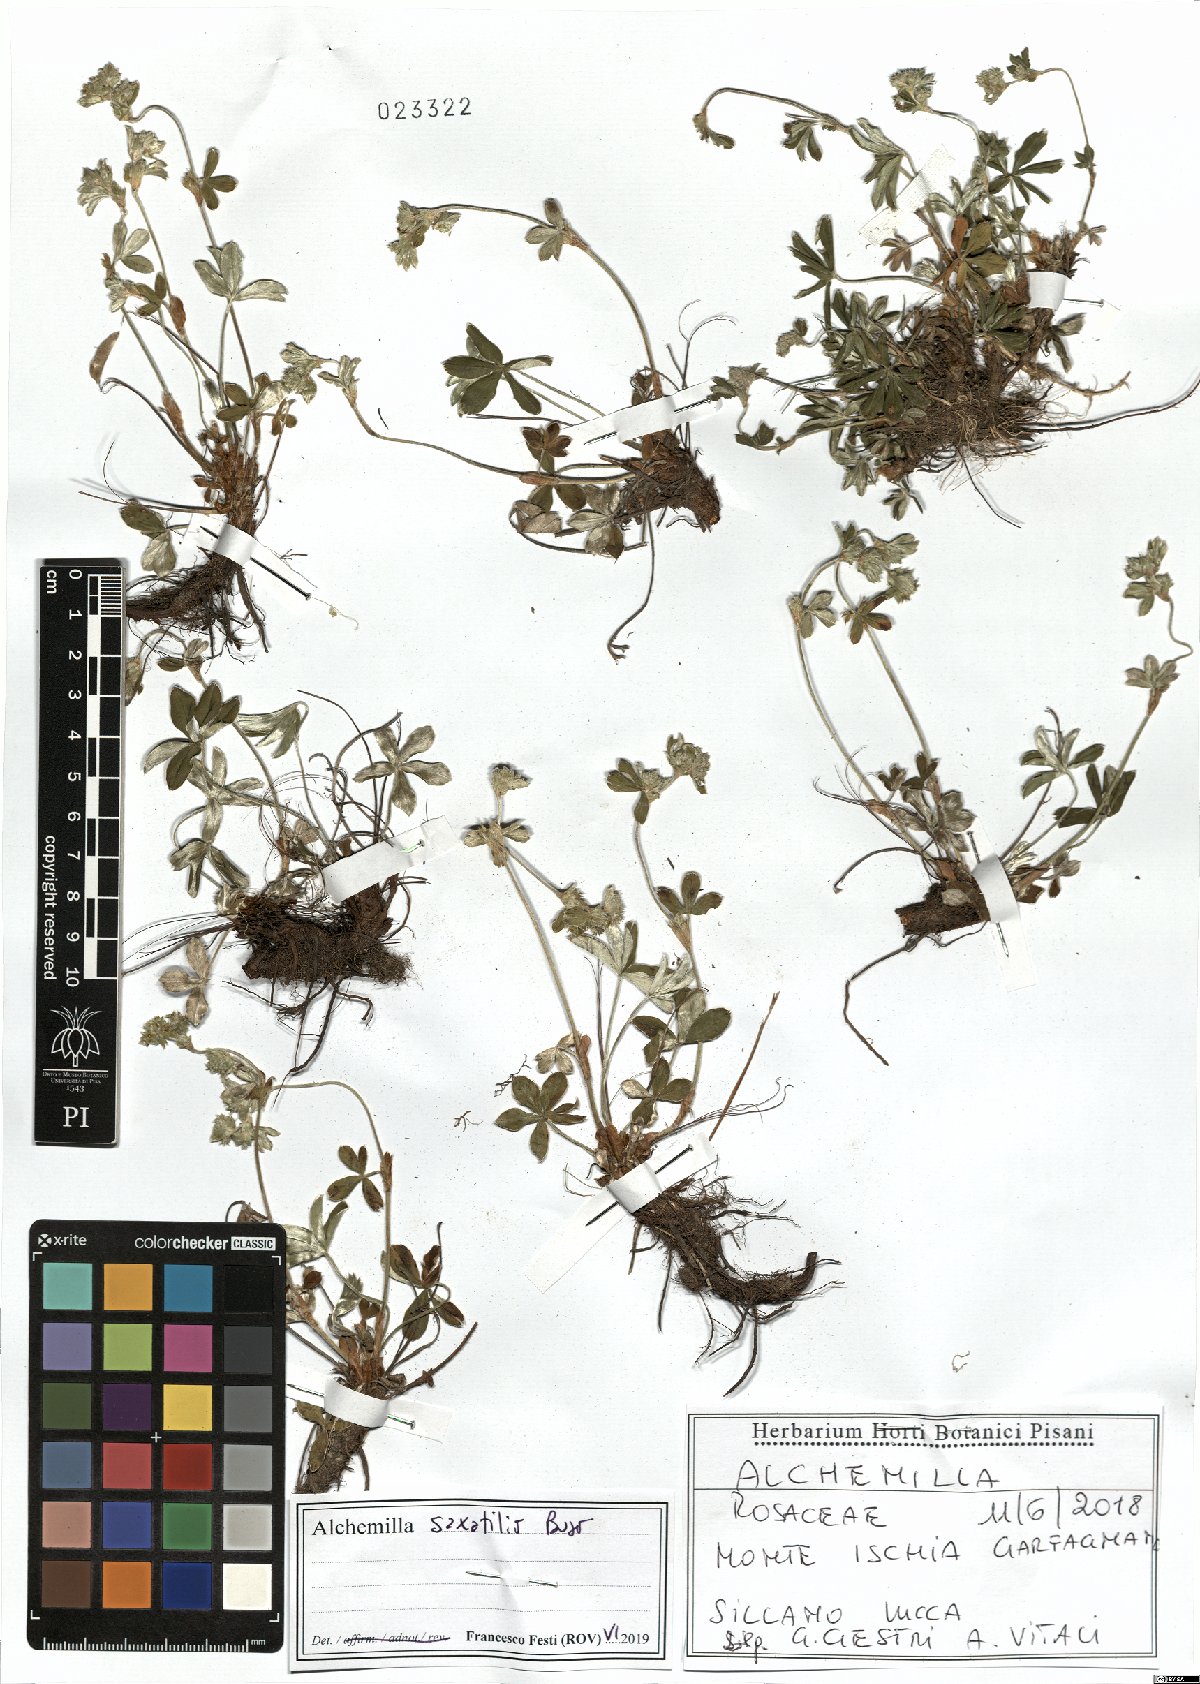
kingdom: Plantae
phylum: Tracheophyta
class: Magnoliopsida
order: Rosales
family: Rosaceae
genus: Alchemilla
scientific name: Alchemilla saxatilis
